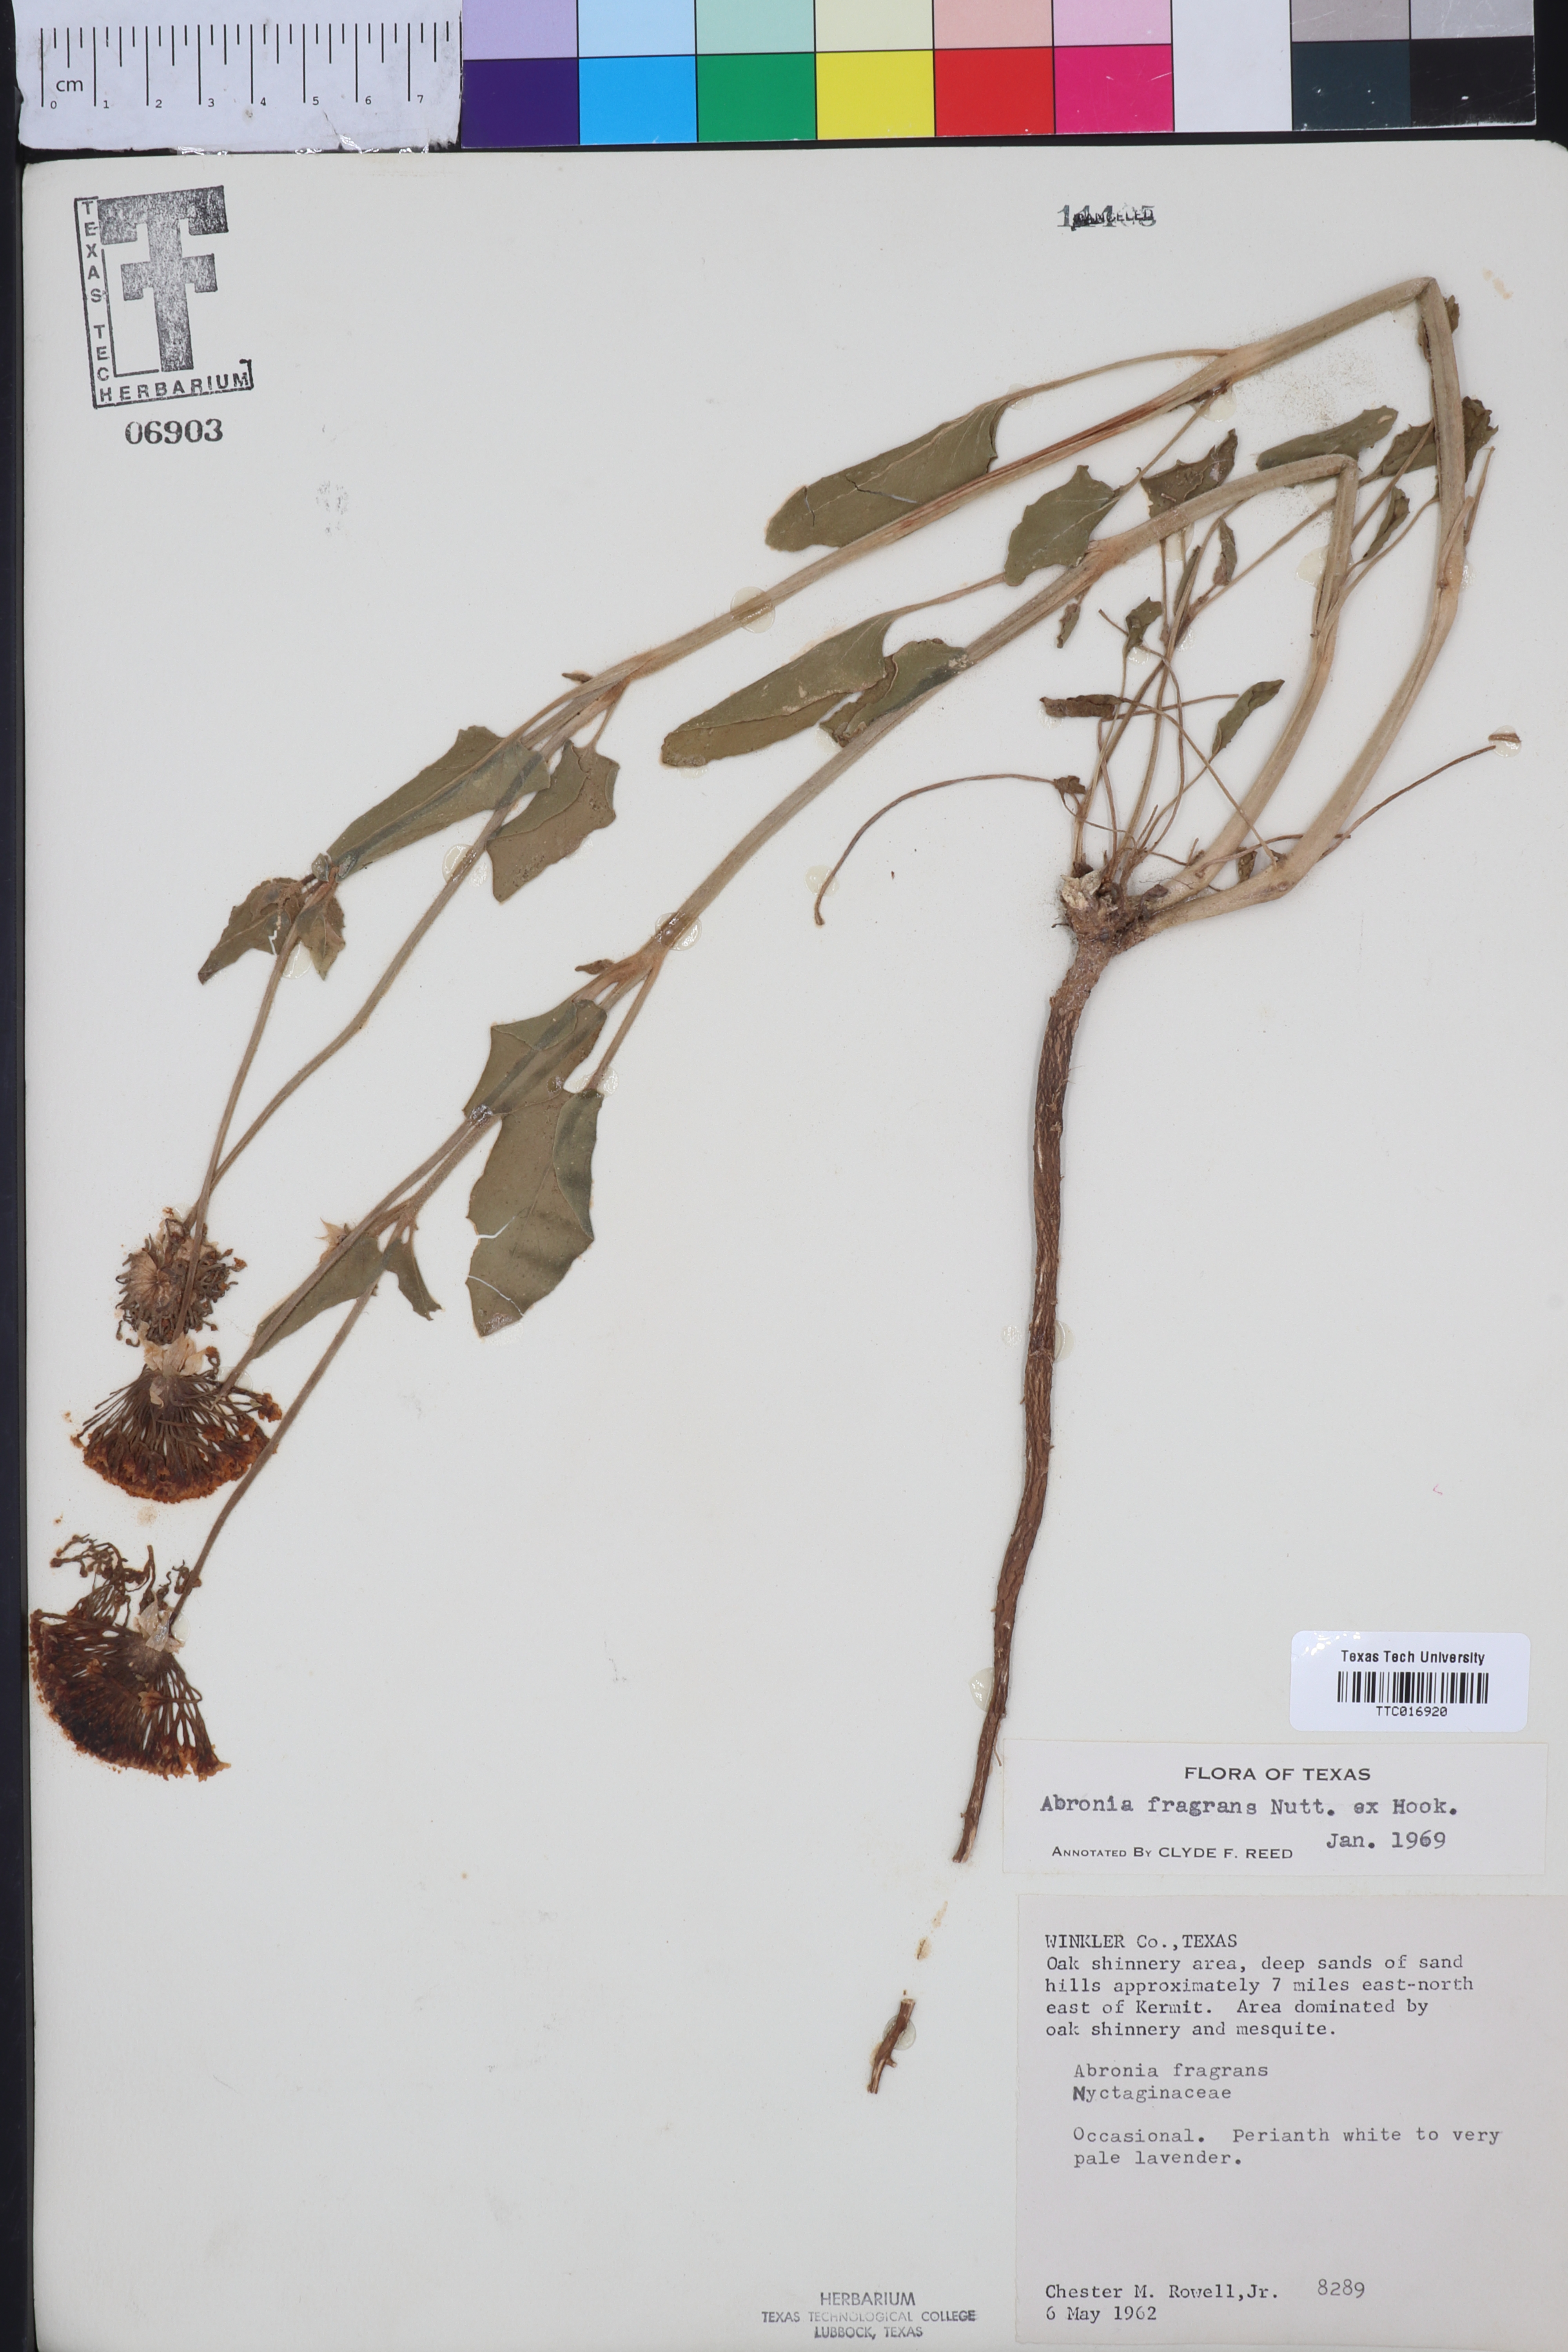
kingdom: Plantae
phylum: Tracheophyta
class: Magnoliopsida
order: Caryophyllales
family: Nyctaginaceae
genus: Abronia
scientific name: Abronia fragrans
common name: Fragrant sand-verbena
